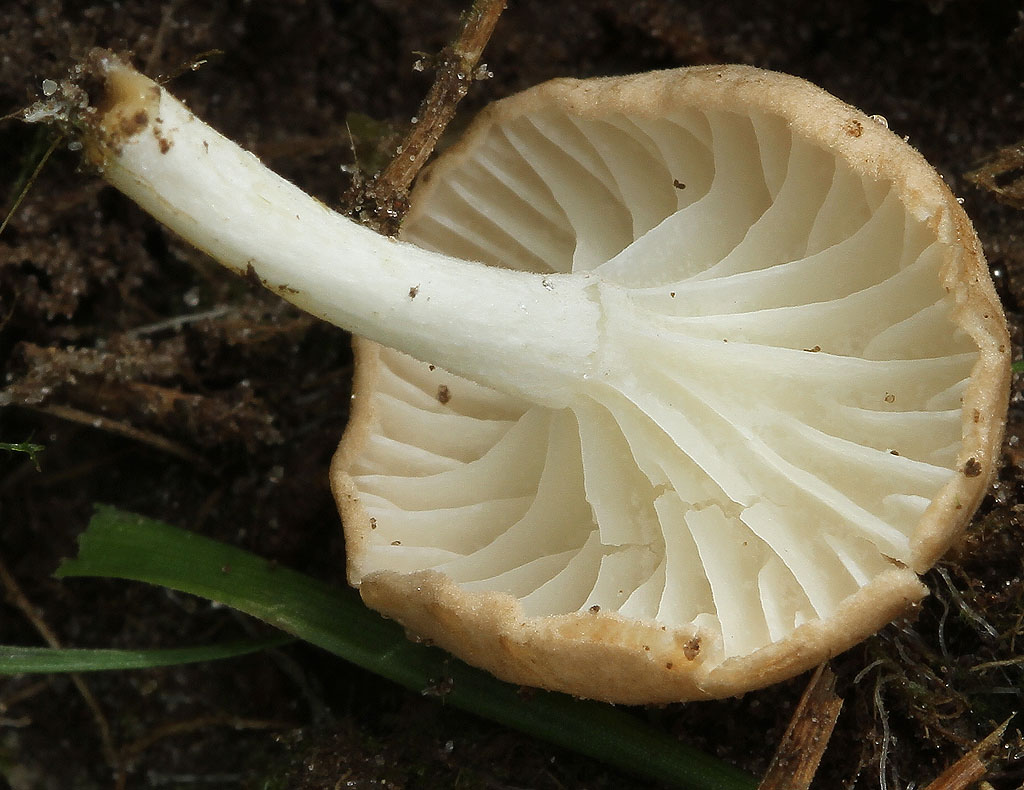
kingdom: Fungi
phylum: Basidiomycota
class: Agaricomycetes
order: Agaricales
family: Entolomataceae
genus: Entoloma
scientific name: Entoloma neglectum
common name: bleg rødblad
